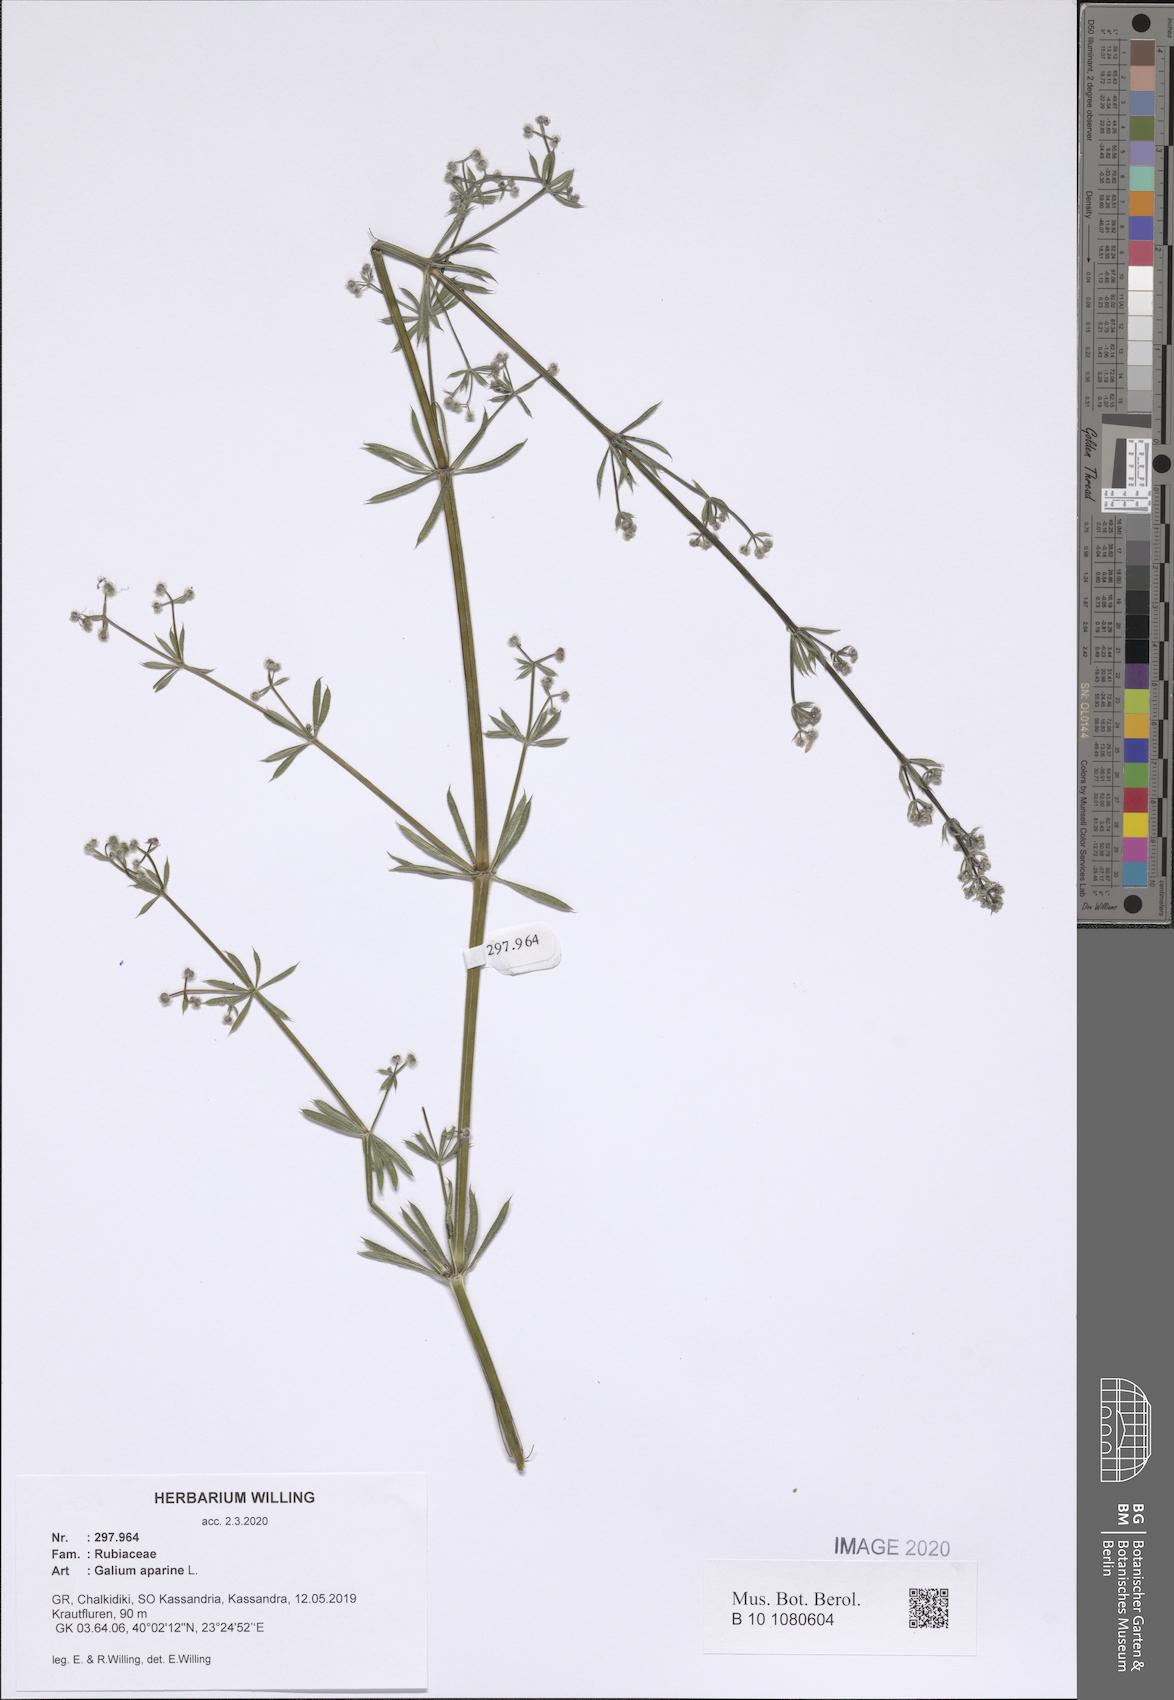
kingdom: Plantae
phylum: Tracheophyta
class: Magnoliopsida
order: Gentianales
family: Rubiaceae
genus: Galium
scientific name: Galium aparine
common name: Cleavers
